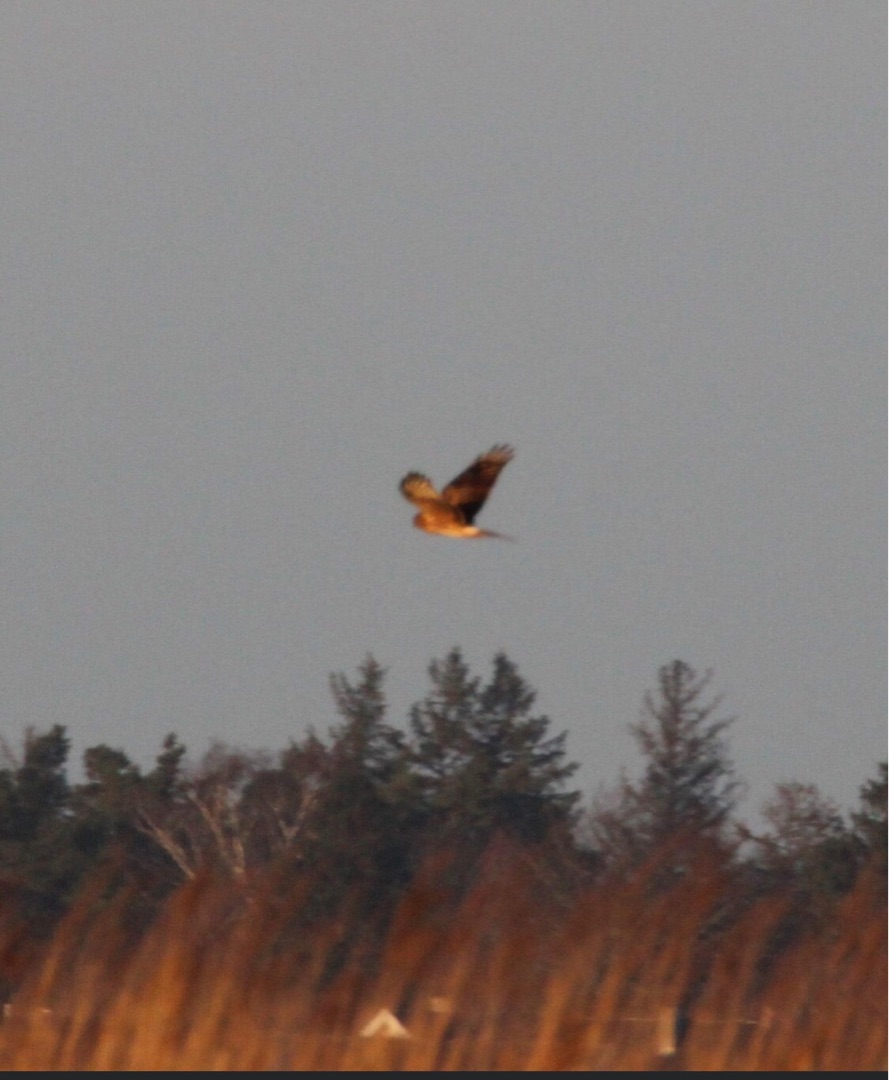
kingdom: Animalia
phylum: Chordata
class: Aves
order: Accipitriformes
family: Accipitridae
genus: Circus
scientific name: Circus cyaneus
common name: Blå kærhøg
